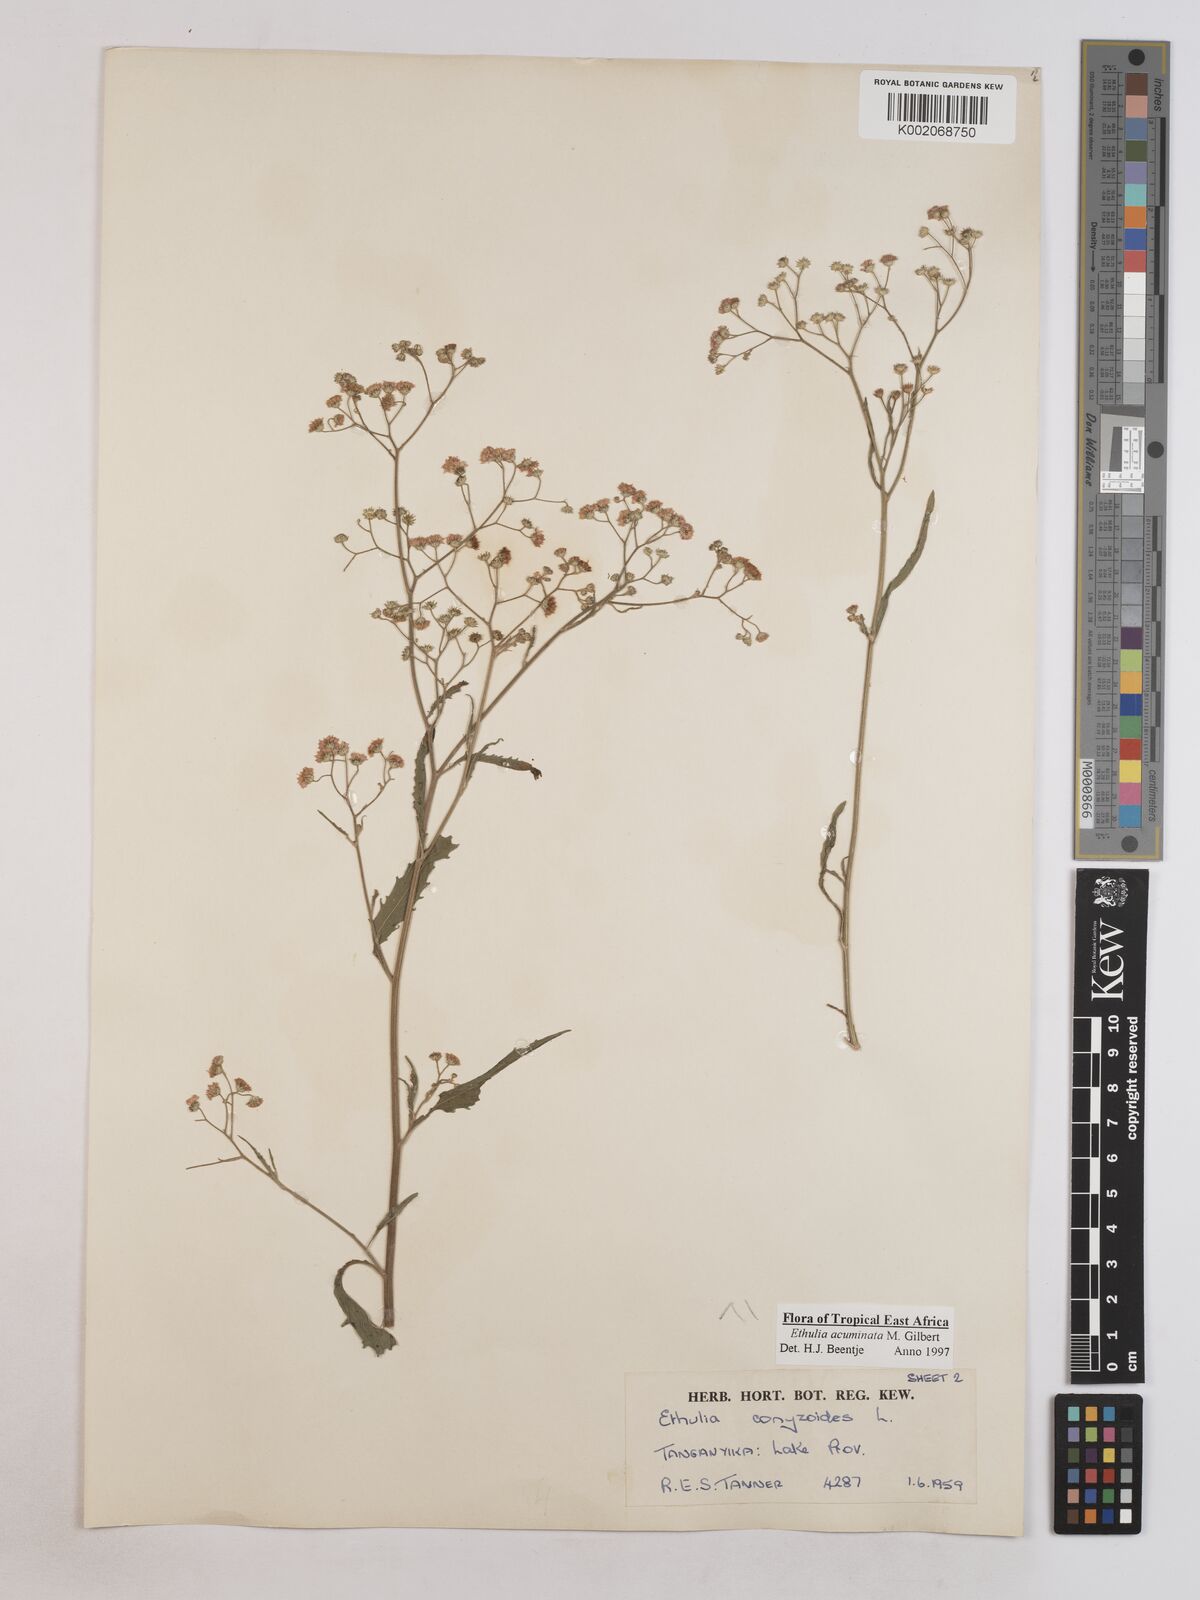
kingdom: Plantae
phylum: Tracheophyta
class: Magnoliopsida
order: Asterales
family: Asteraceae
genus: Ethulia
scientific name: Ethulia acuminata
